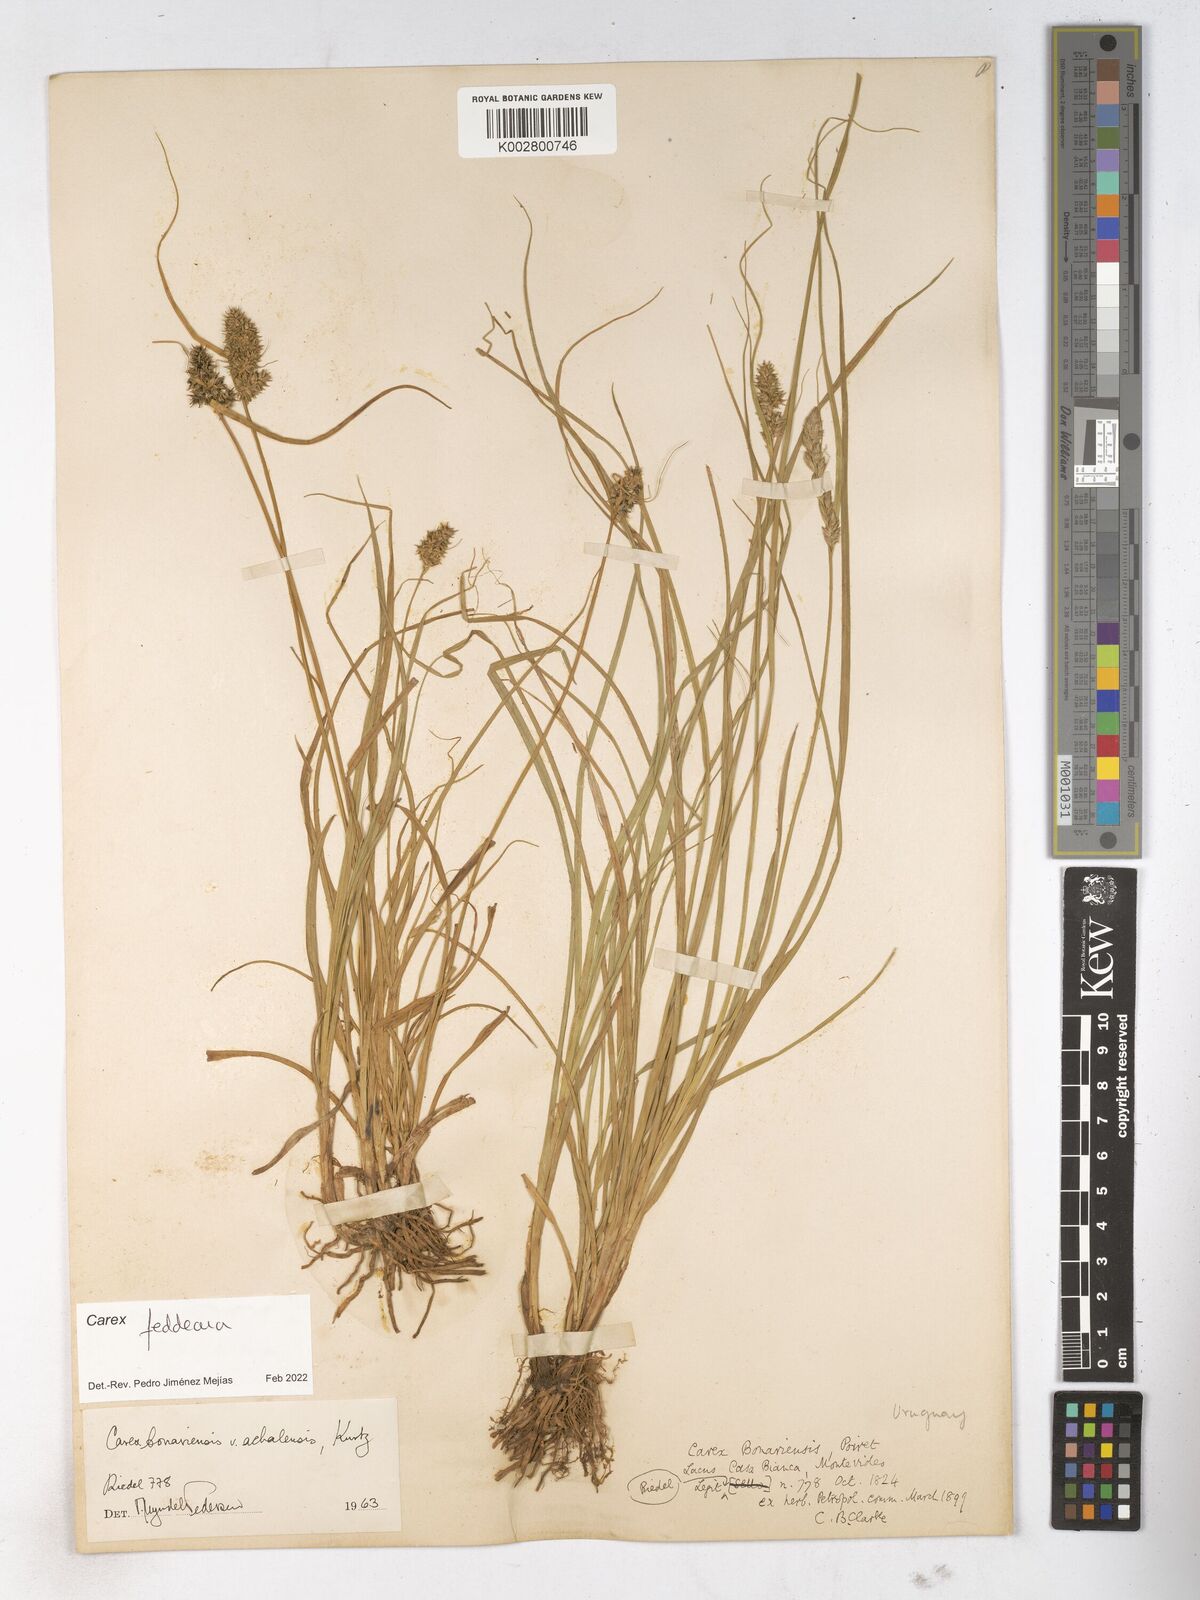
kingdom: Plantae
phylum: Tracheophyta
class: Liliopsida
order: Poales
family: Cyperaceae
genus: Carex
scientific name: Carex bonariensis
